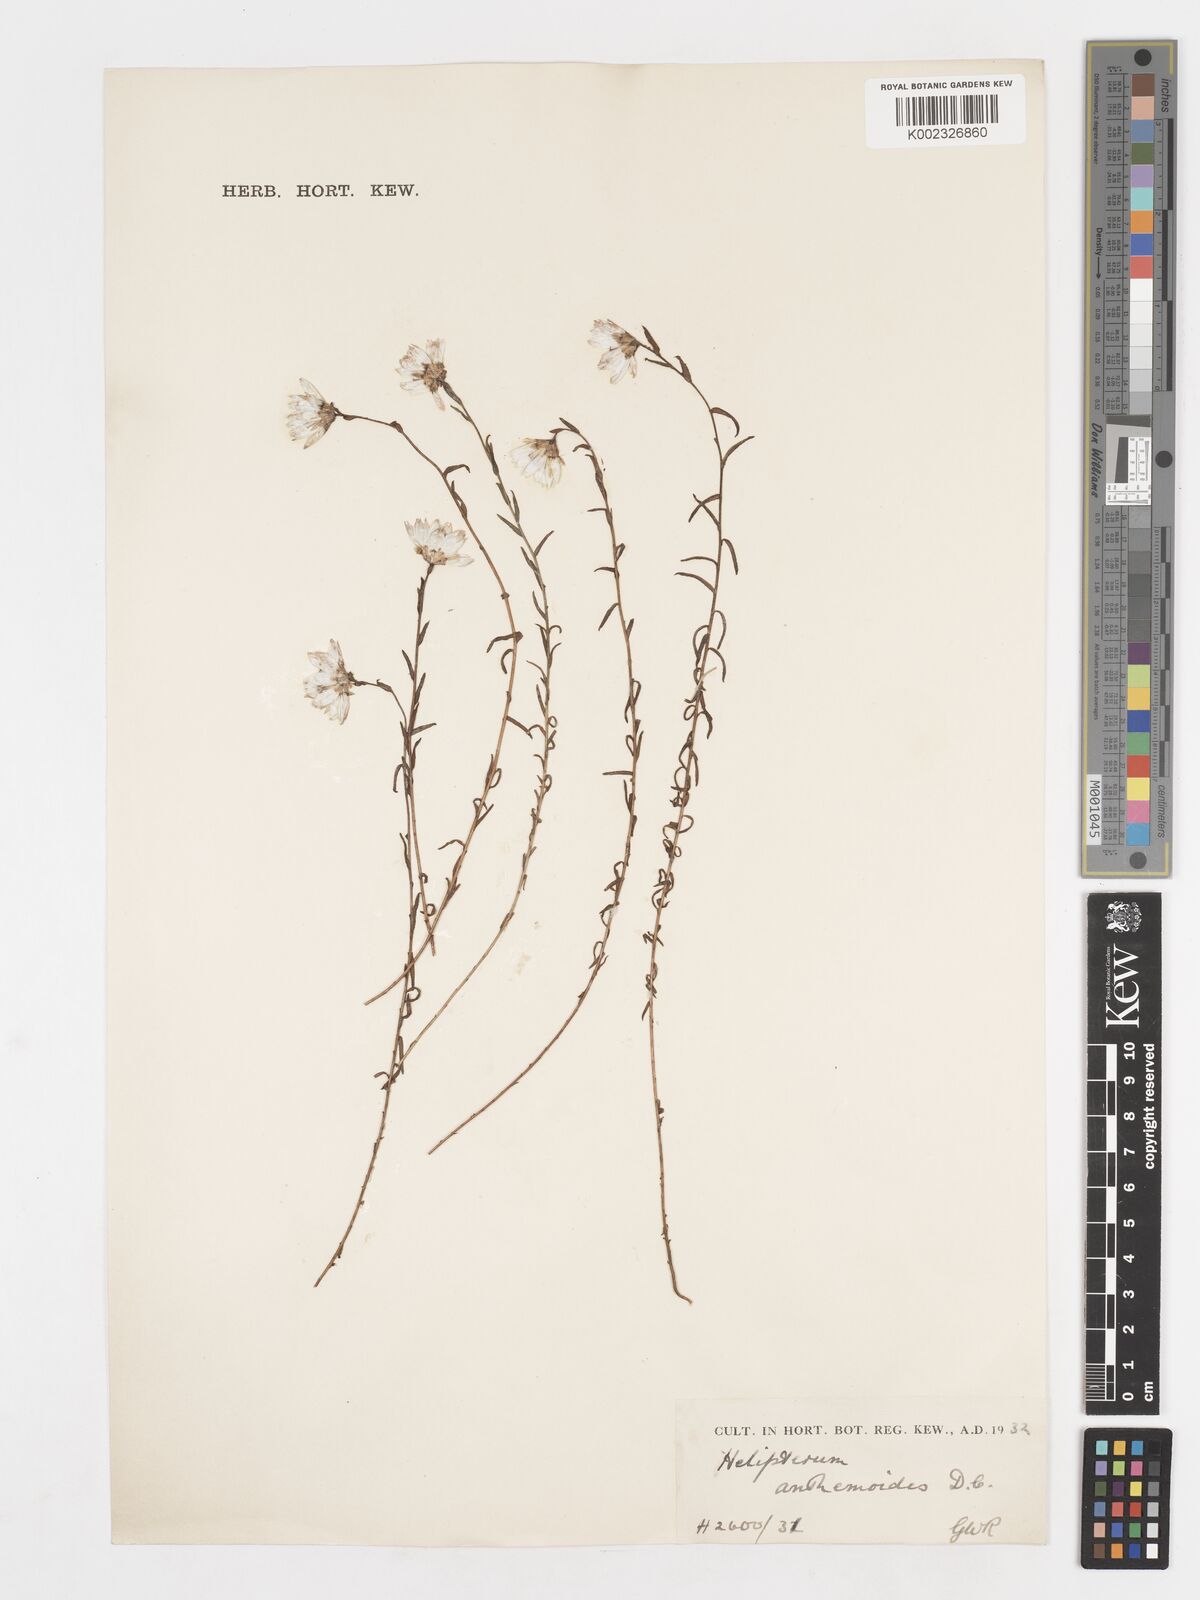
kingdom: Plantae
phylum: Tracheophyta
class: Magnoliopsida
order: Asterales
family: Asteraceae
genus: Syncarpha
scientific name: Syncarpha
